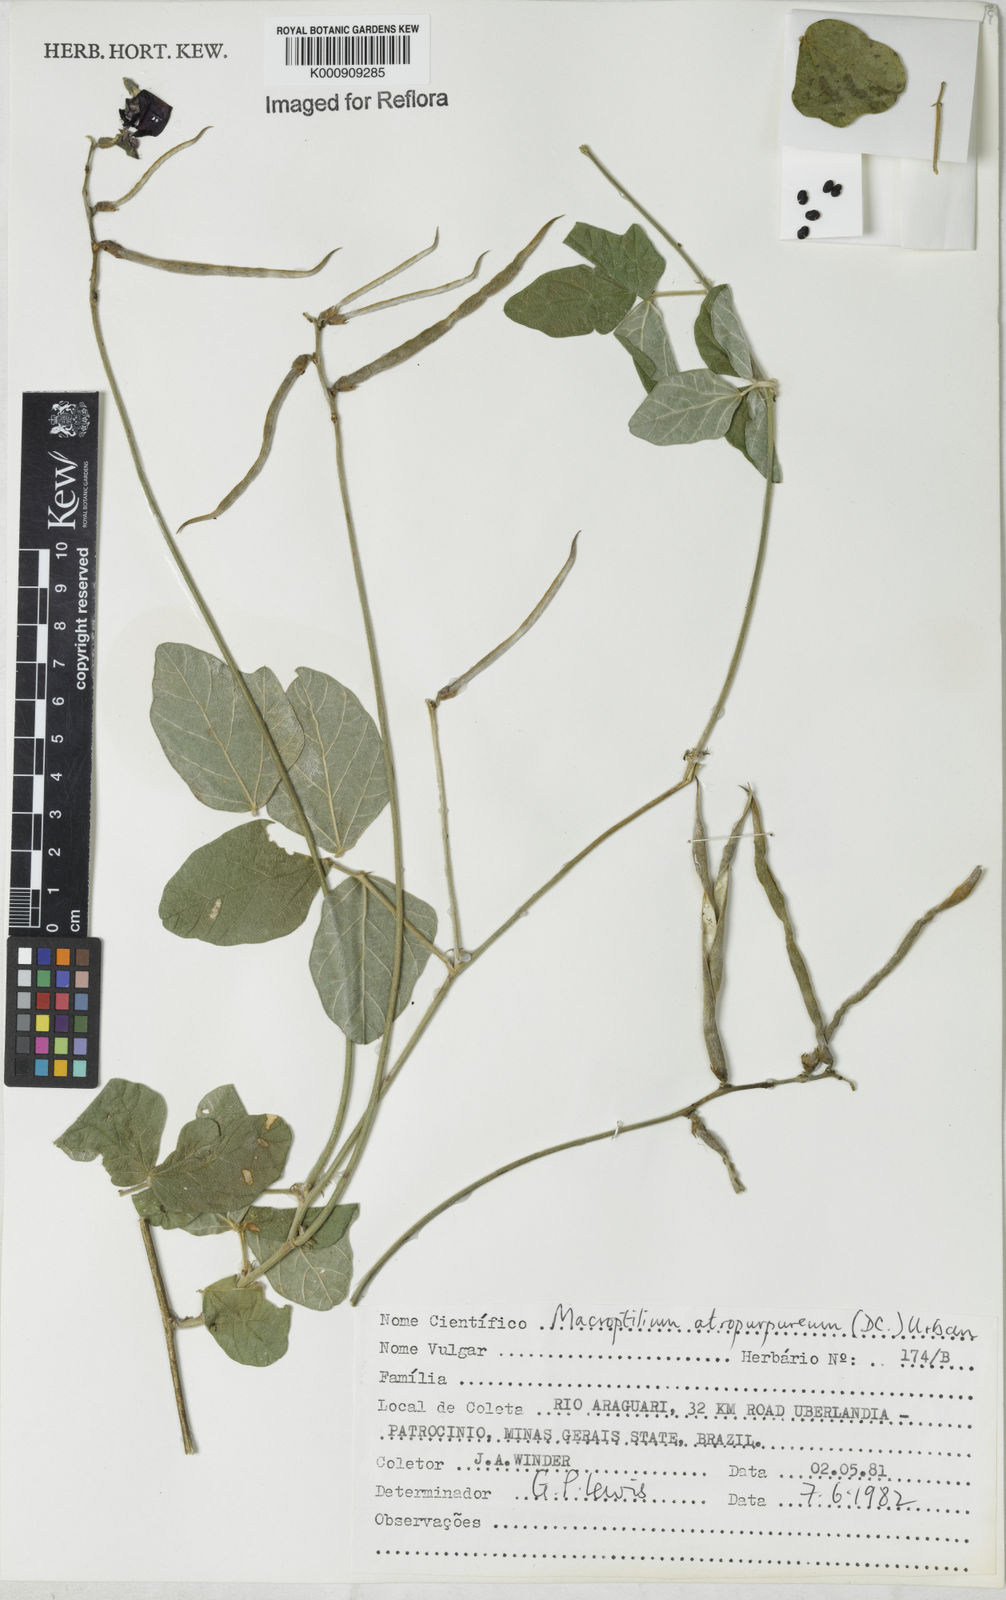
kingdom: Plantae
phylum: Tracheophyta
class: Magnoliopsida
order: Fabales
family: Fabaceae
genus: Macroptilium
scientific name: Macroptilium atropurpureum
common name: Purple bushbean
